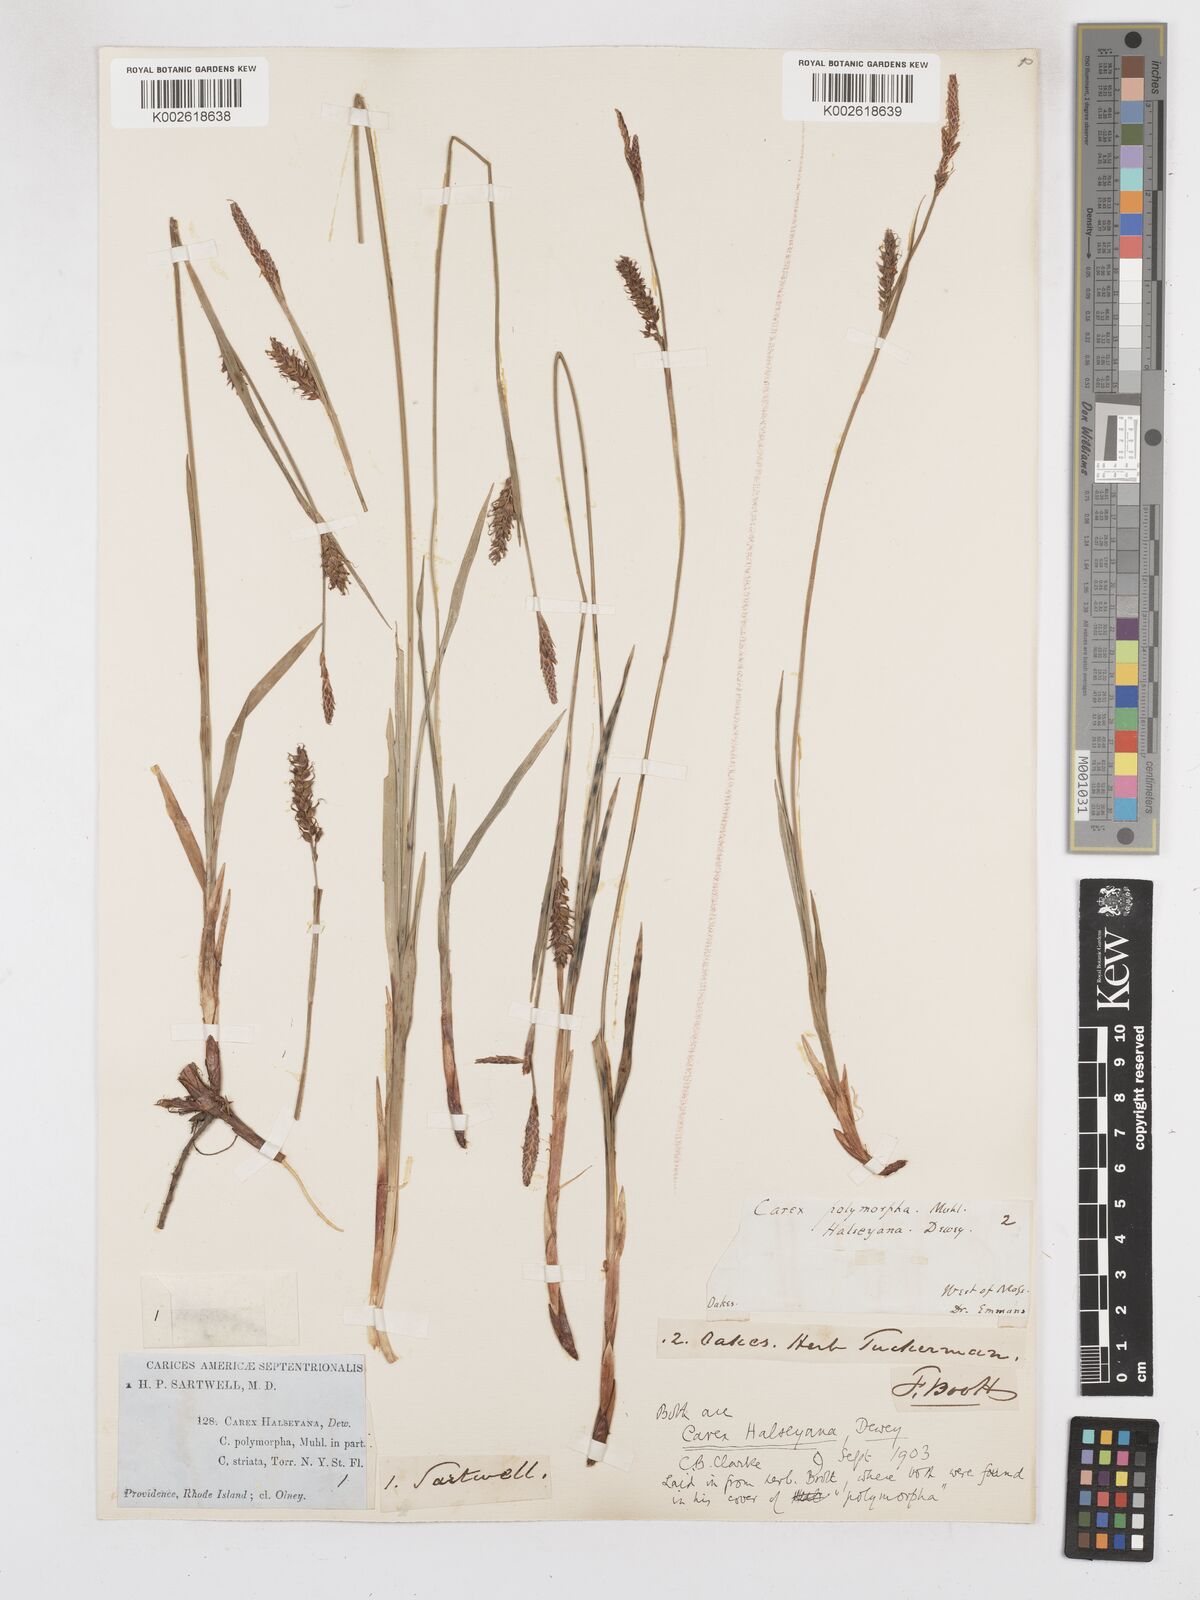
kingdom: Plantae
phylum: Tracheophyta
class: Liliopsida
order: Poales
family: Cyperaceae
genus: Carex
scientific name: Carex polymorpha
